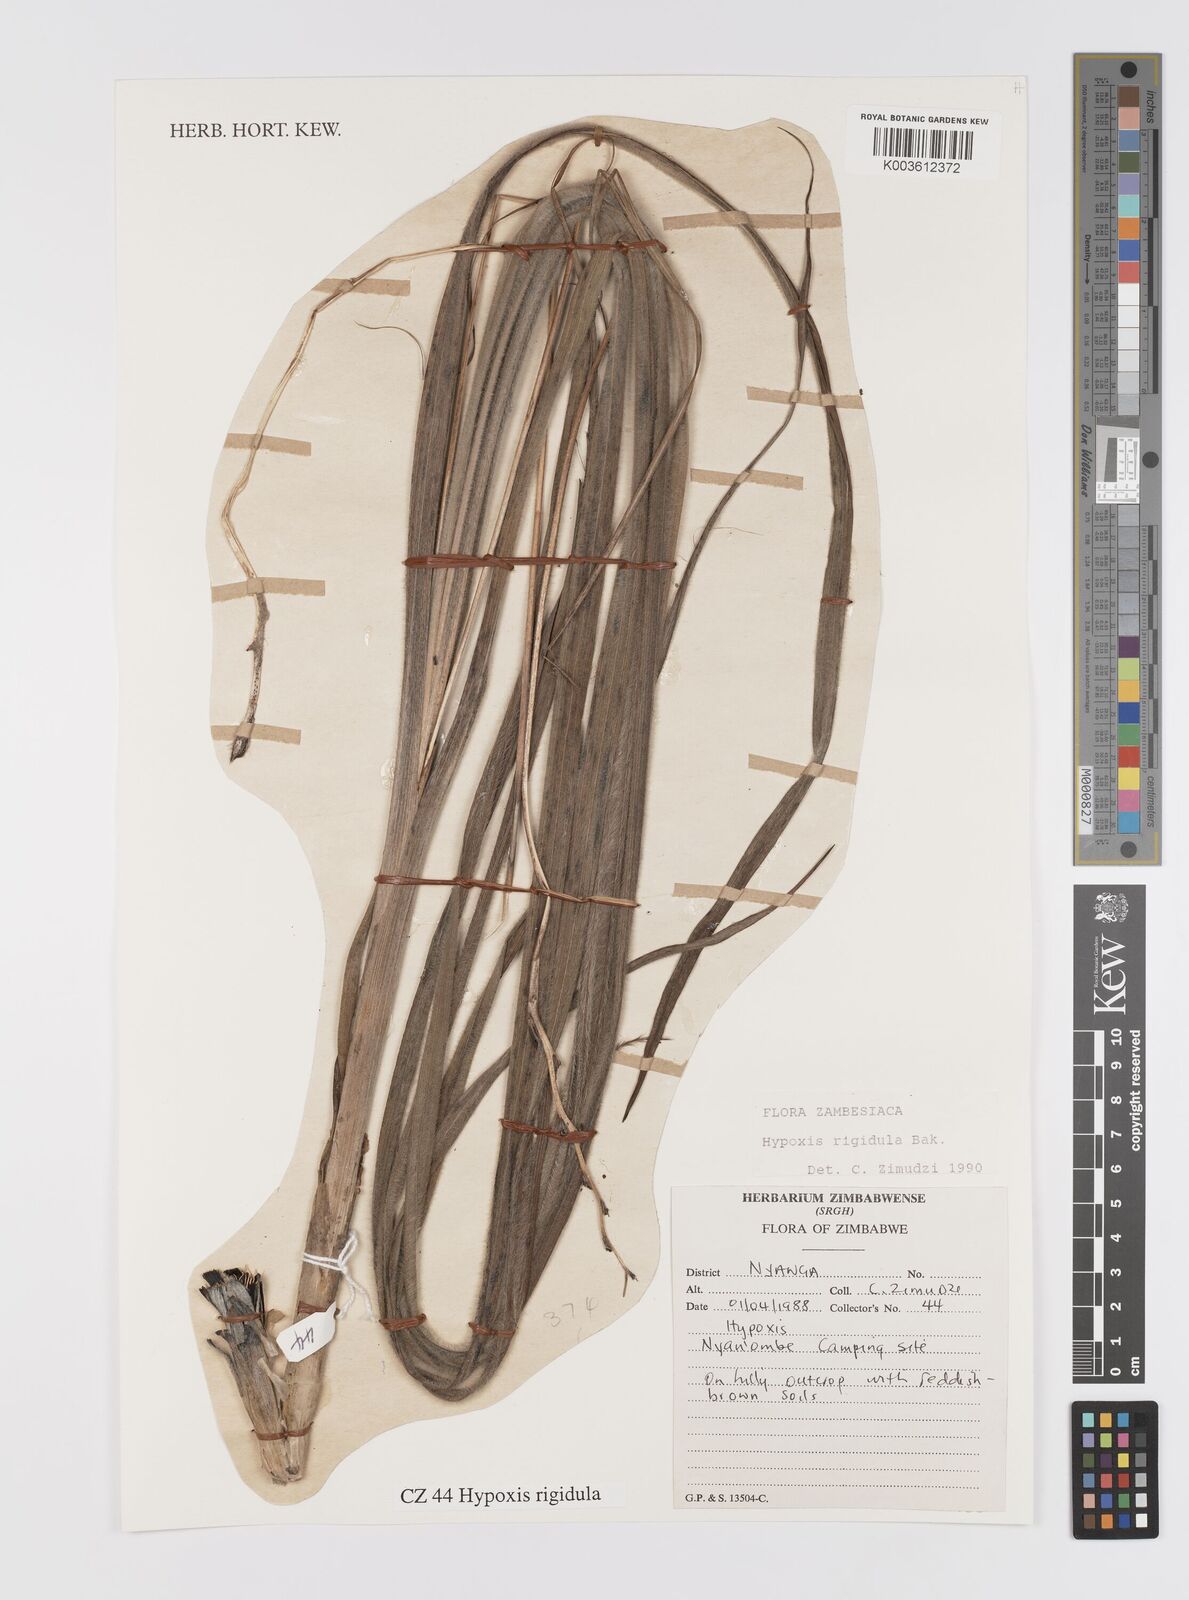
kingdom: Plantae
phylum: Tracheophyta
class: Liliopsida
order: Asparagales
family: Hypoxidaceae
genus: Hypoxis
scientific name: Hypoxis rigidula
